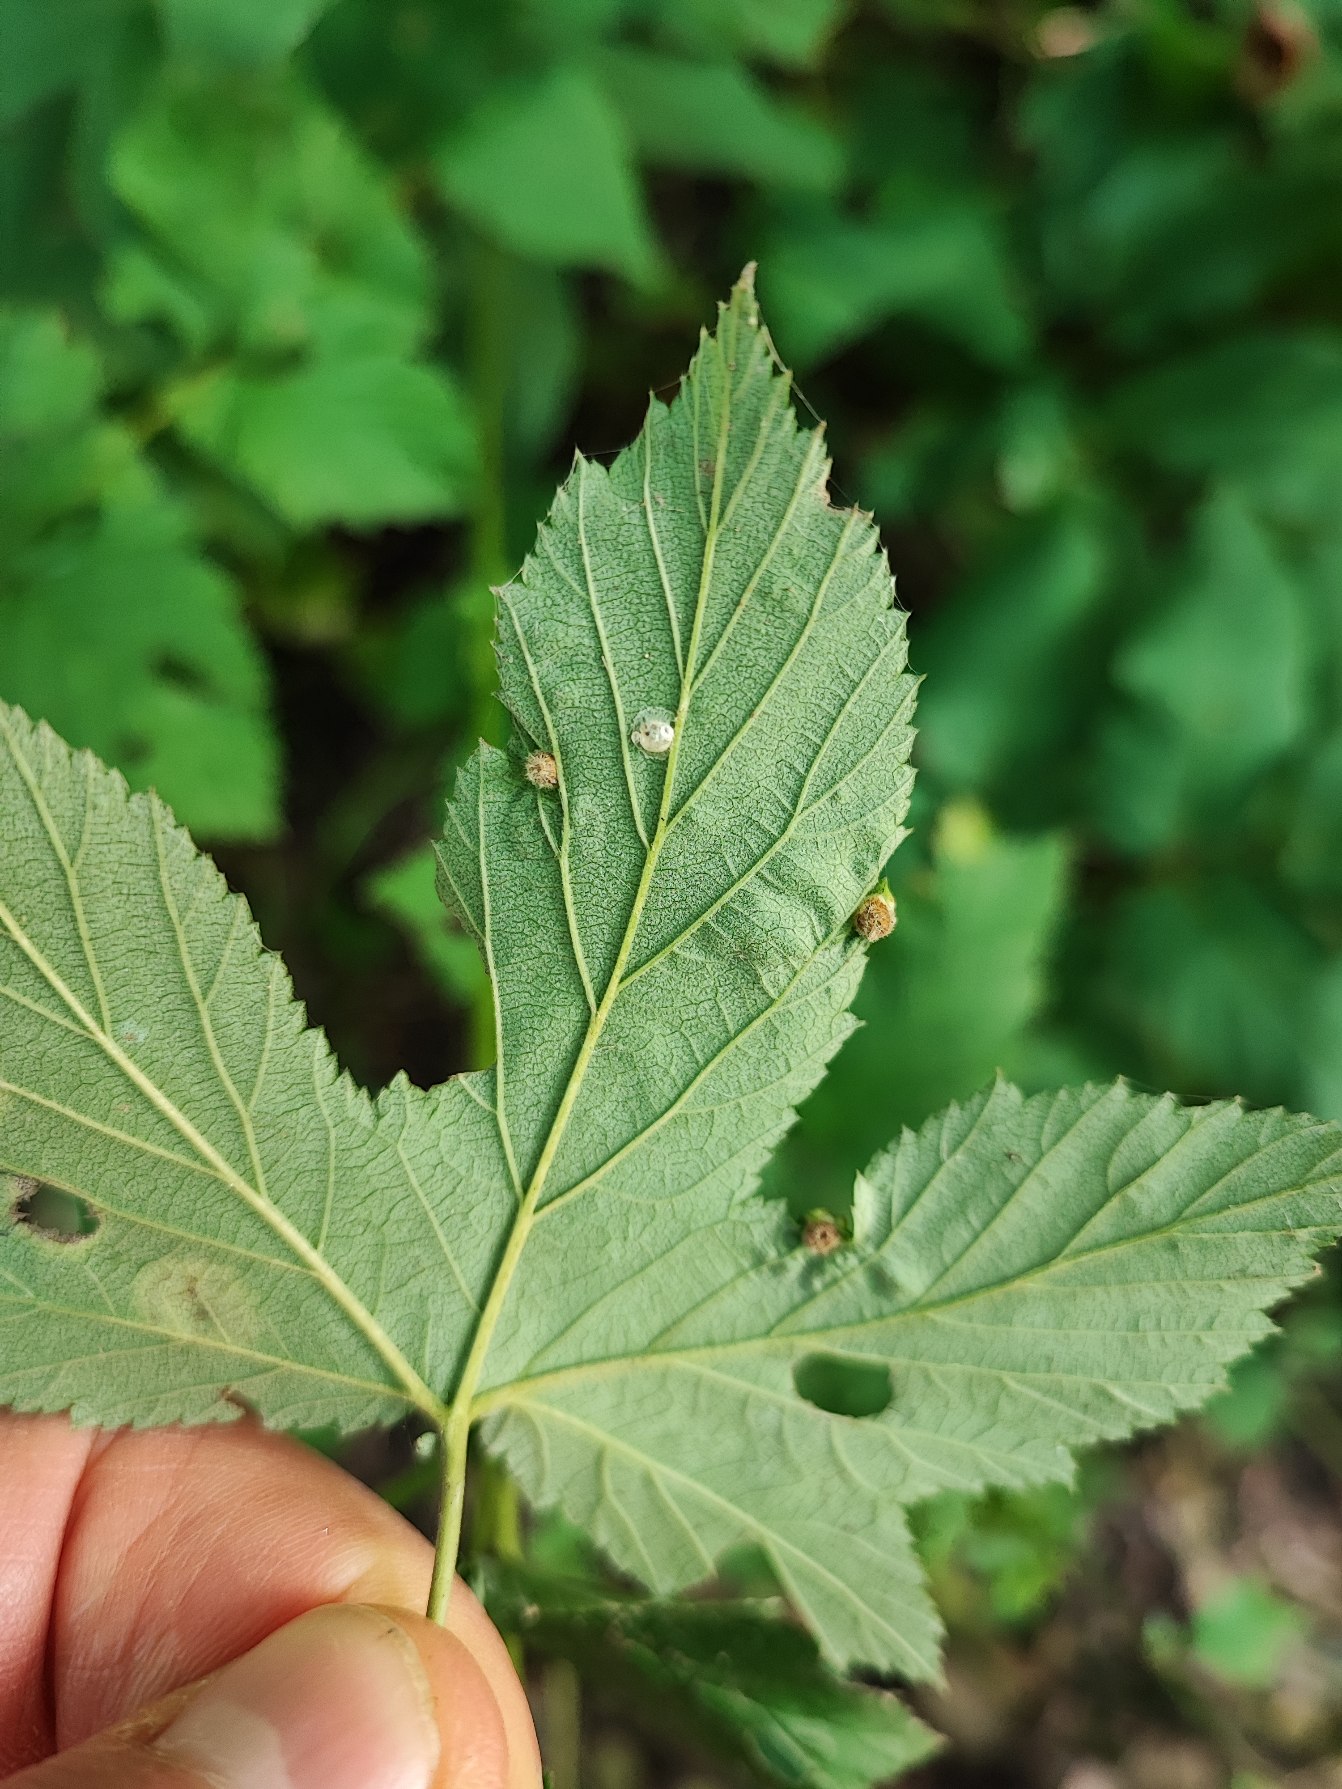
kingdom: Animalia
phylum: Arthropoda
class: Insecta
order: Diptera
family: Cecidomyiidae
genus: Dasineura
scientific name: Dasineura ulmaria
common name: Mjødurtgalmyg
